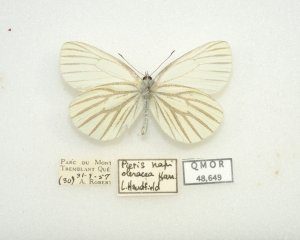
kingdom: Animalia
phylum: Arthropoda
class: Insecta
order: Lepidoptera
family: Pieridae
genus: Pieris
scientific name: Pieris oleracea
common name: Mustard White
